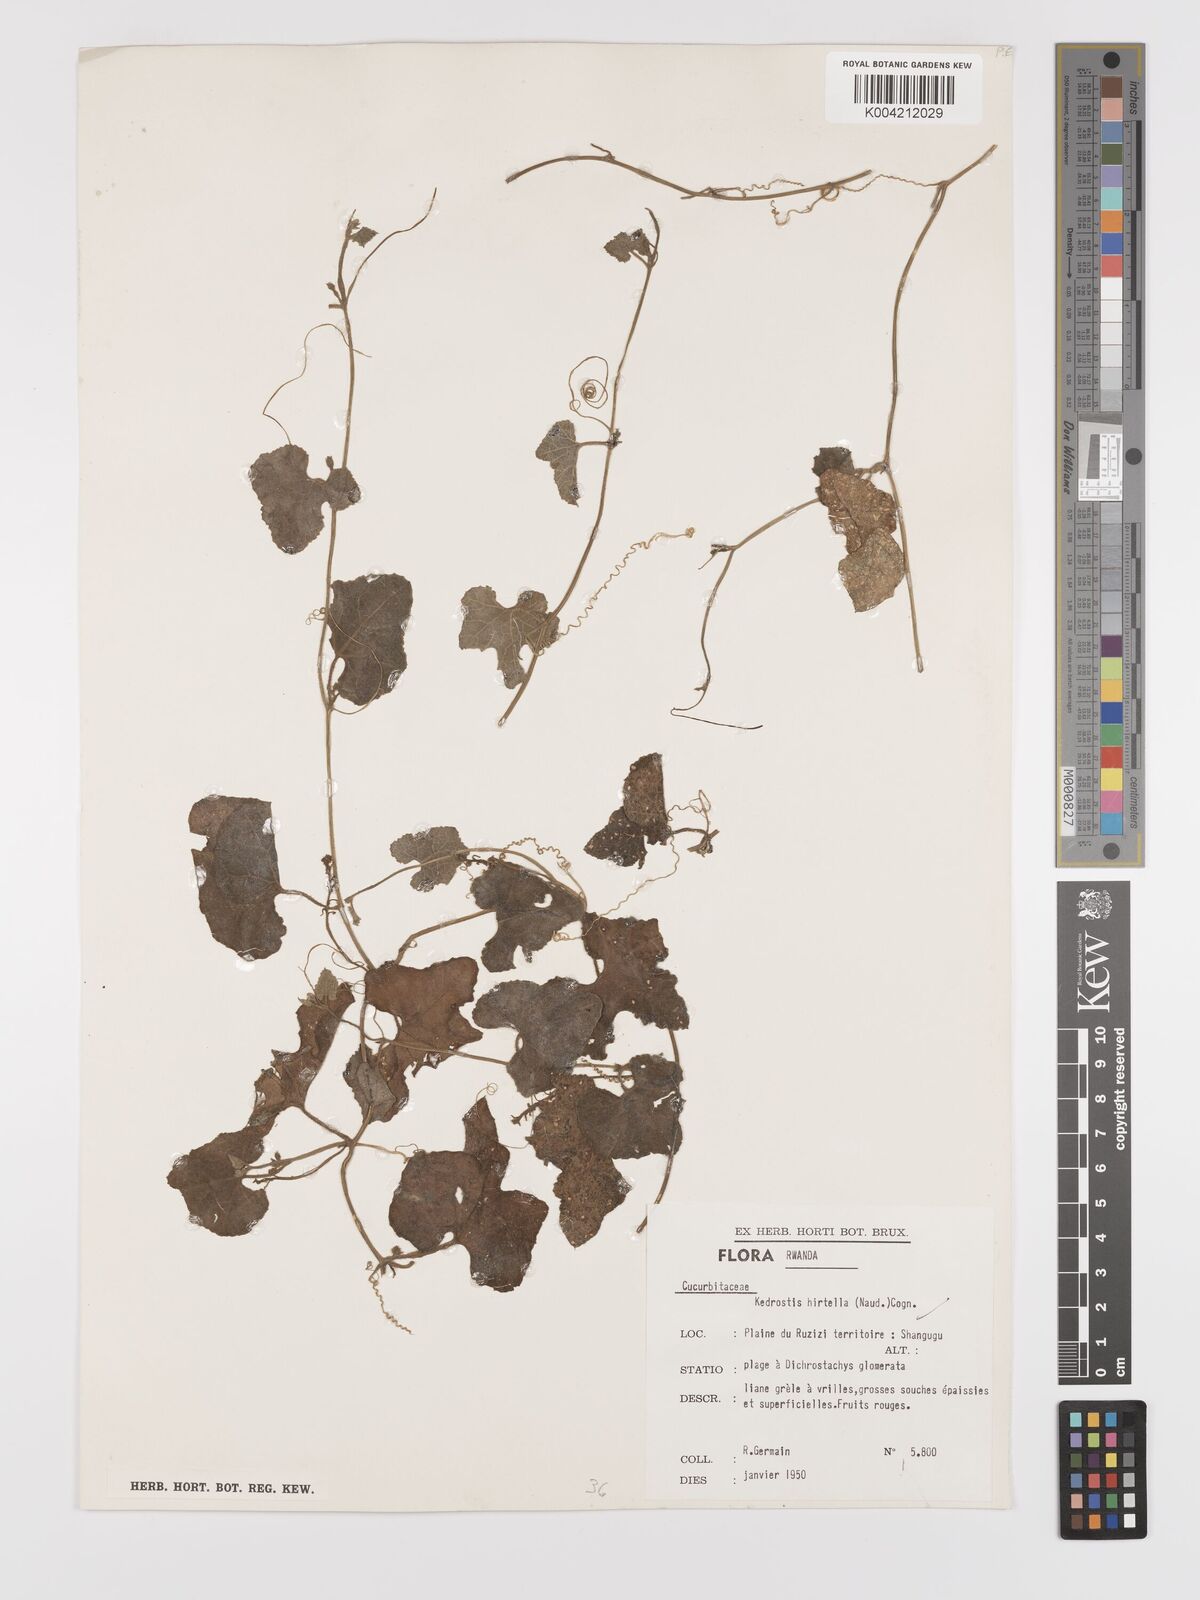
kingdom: Plantae
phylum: Tracheophyta
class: Magnoliopsida
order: Cucurbitales
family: Cucurbitaceae
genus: Kedrostis
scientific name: Kedrostis leloja
